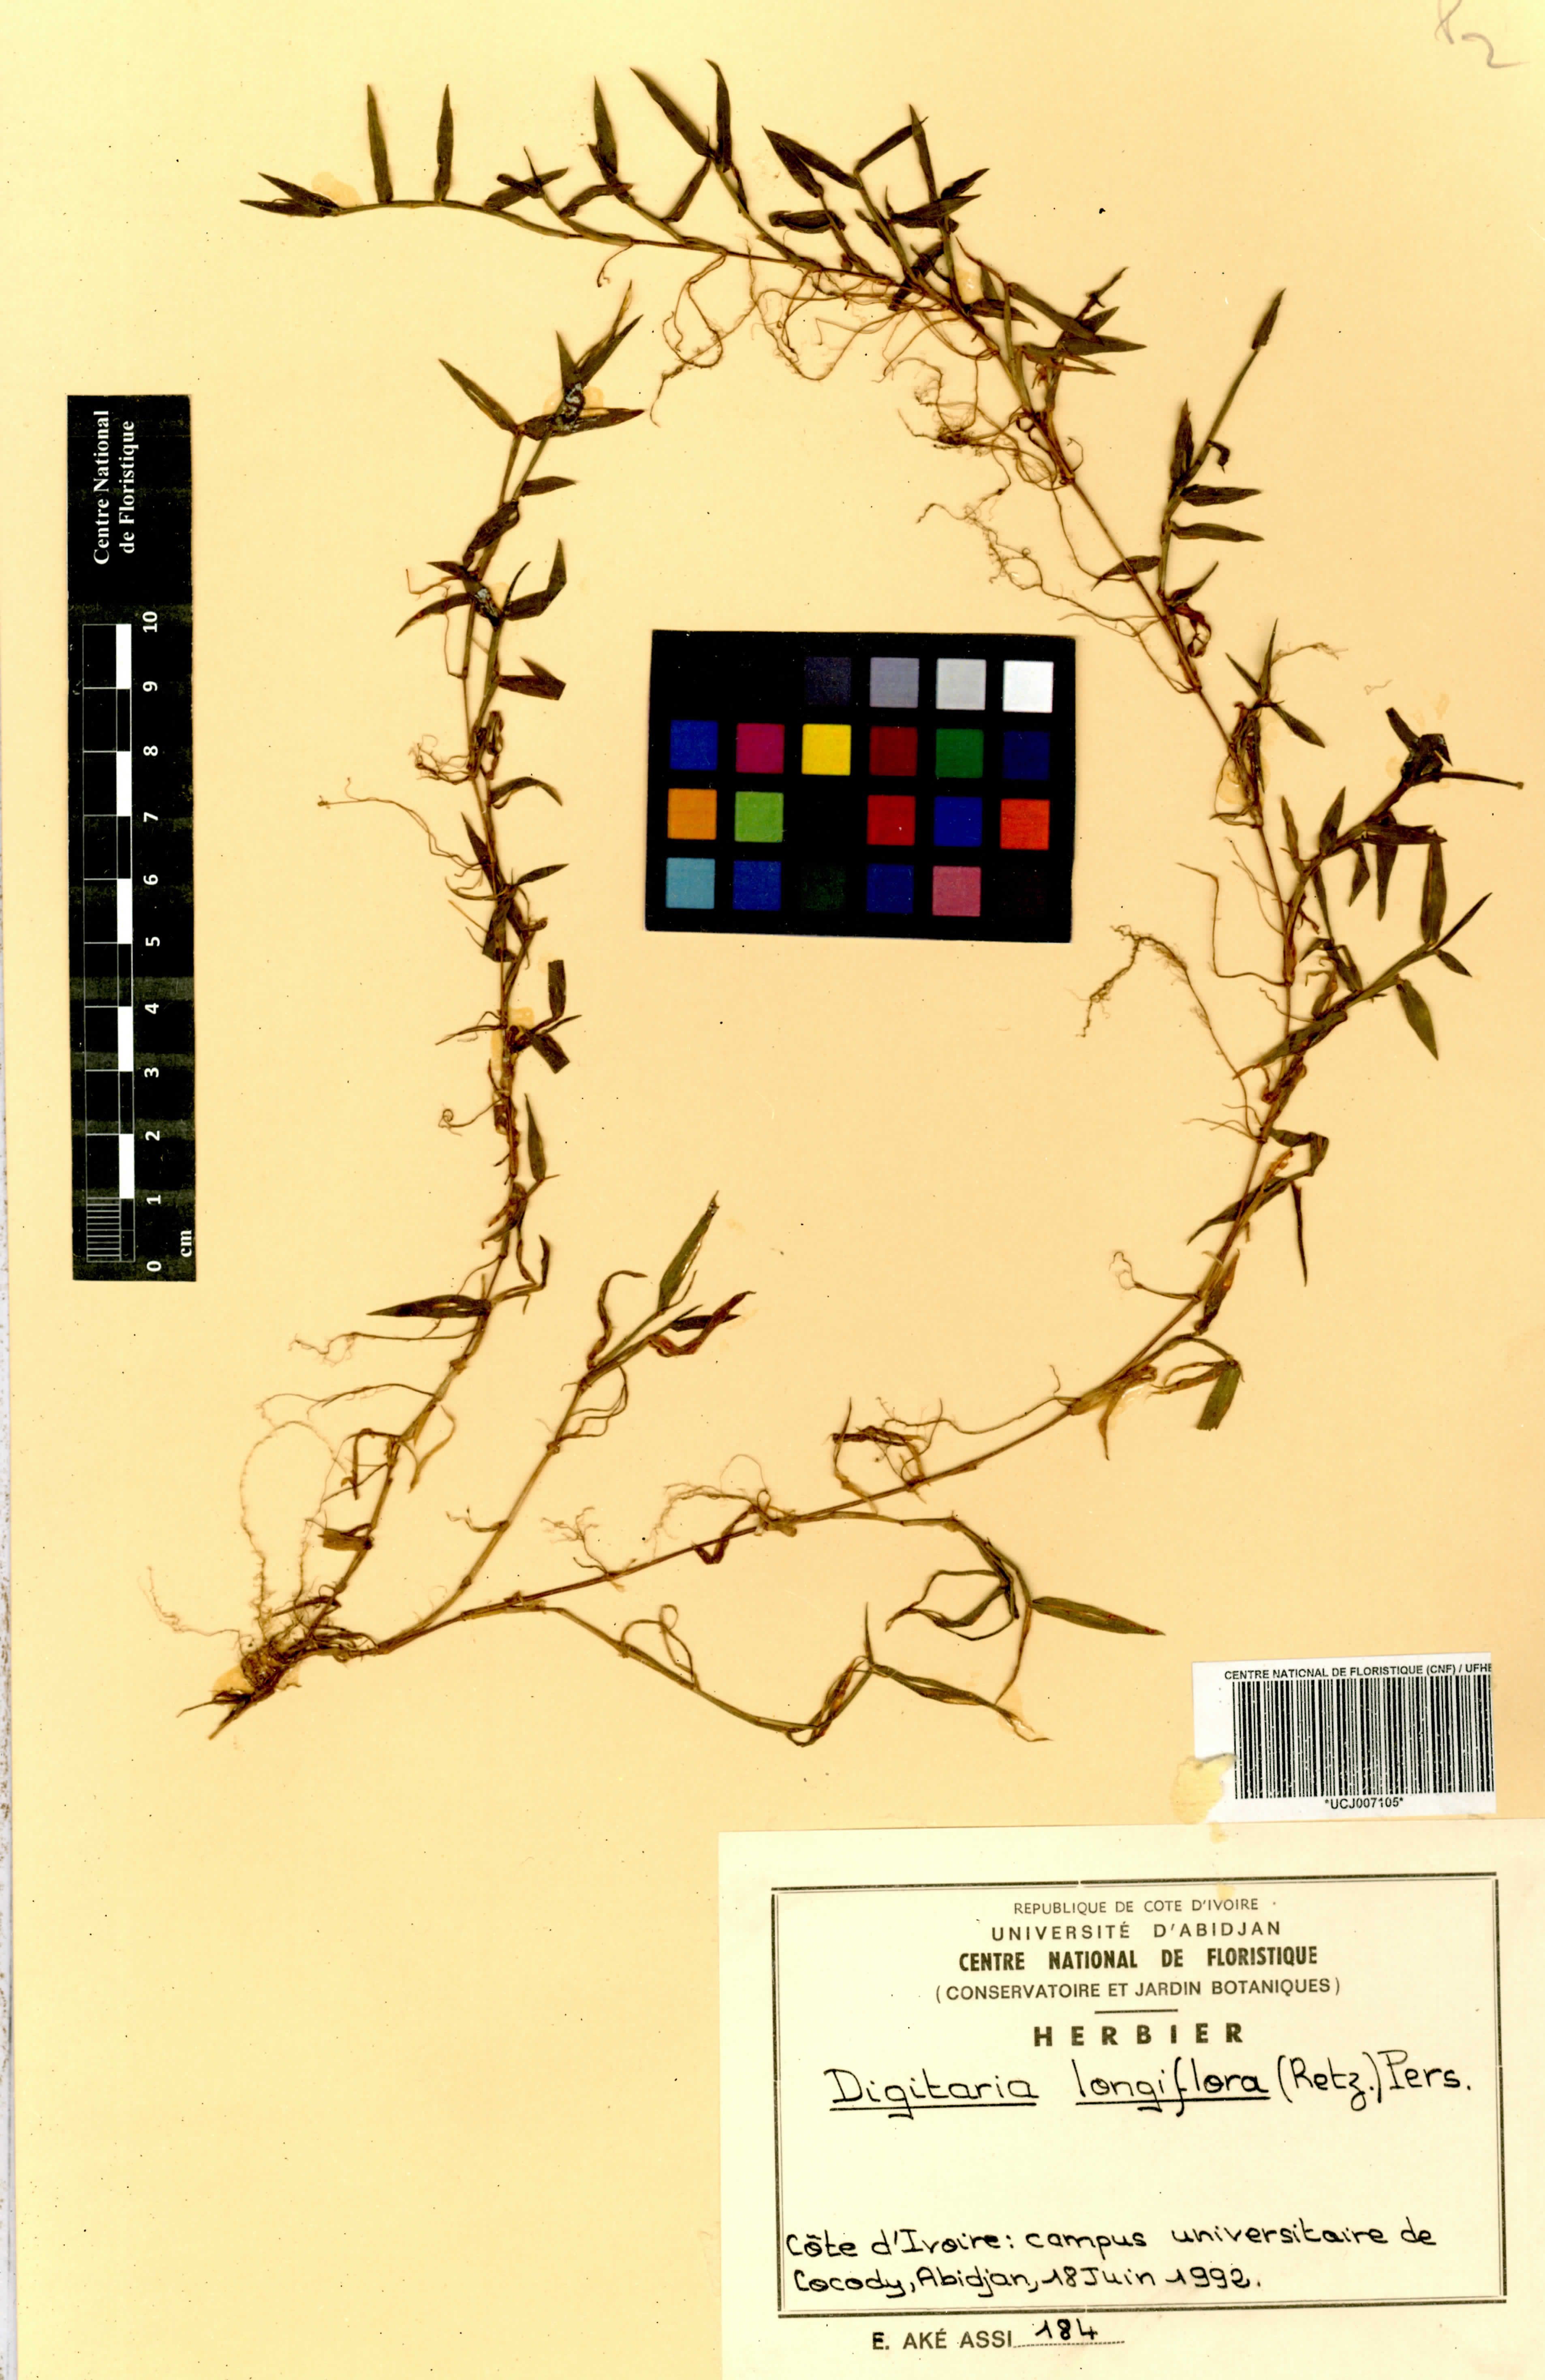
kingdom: Plantae
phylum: Tracheophyta
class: Liliopsida
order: Poales
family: Poaceae
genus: Digitaria
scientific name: Digitaria longiflora
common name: Wire crabgrass
